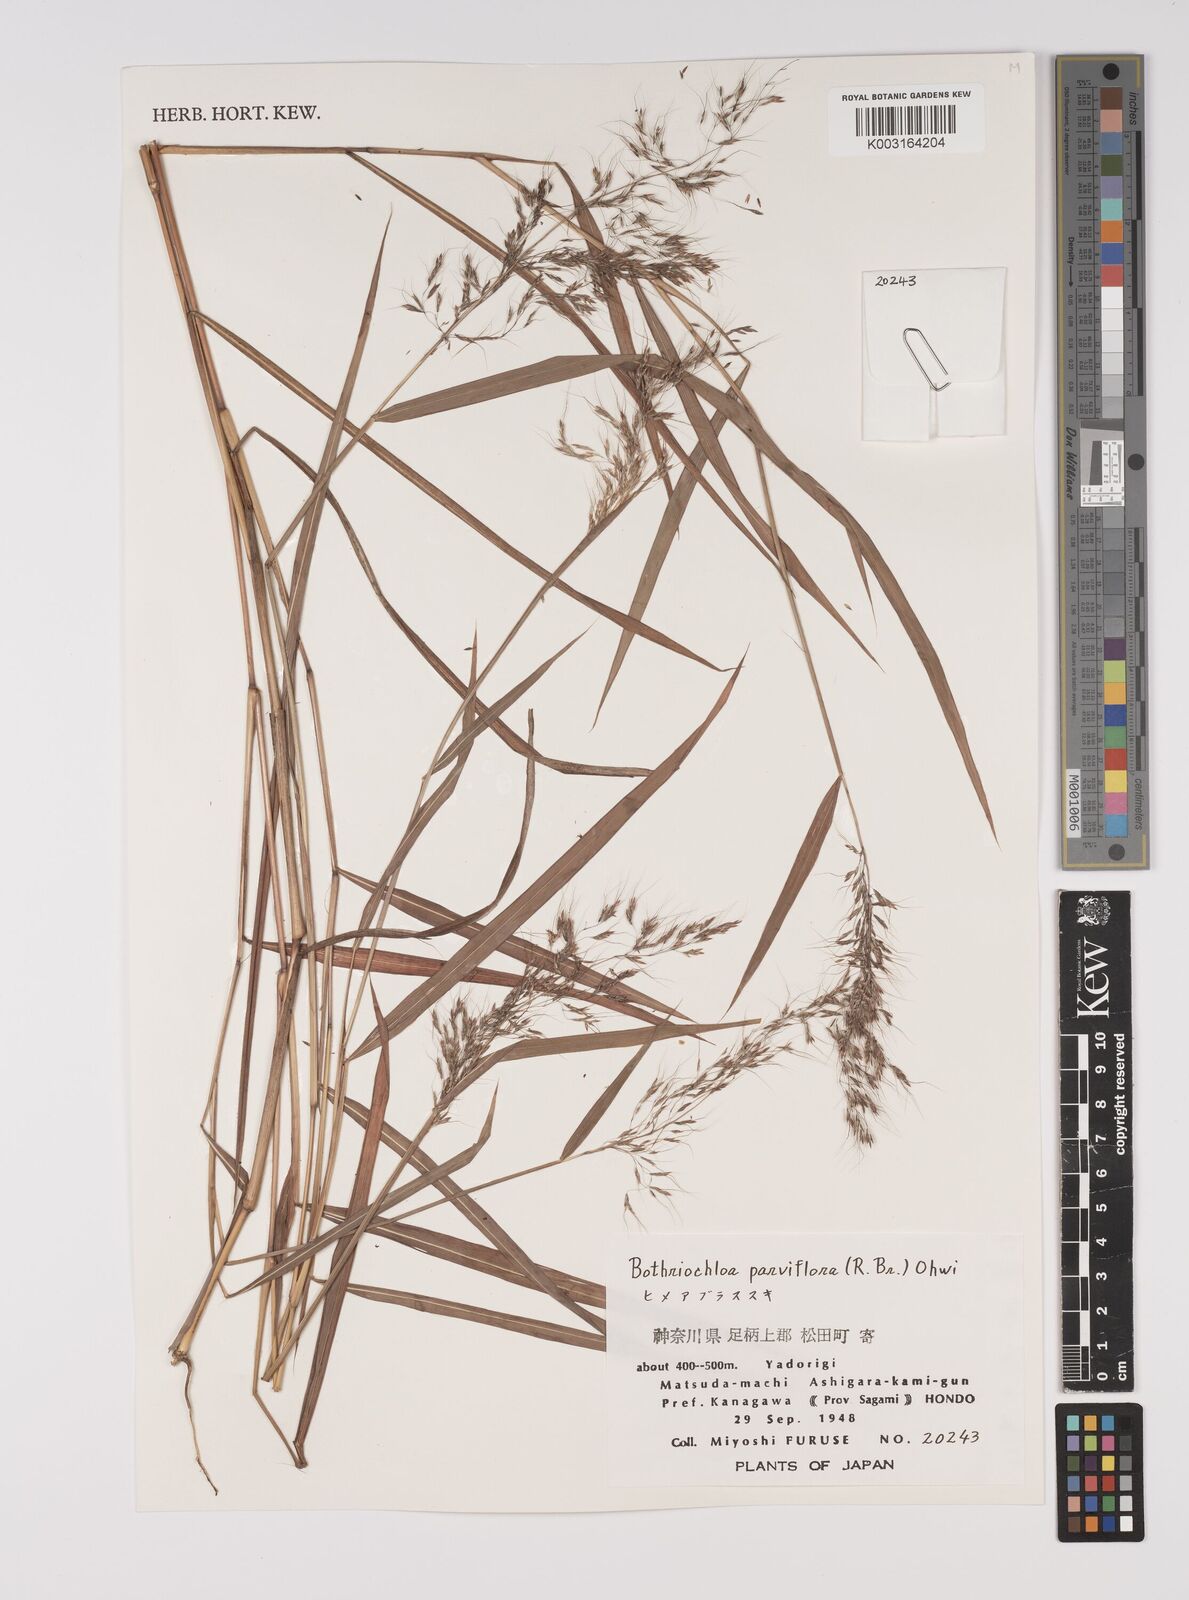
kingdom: Plantae
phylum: Tracheophyta
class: Liliopsida
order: Poales
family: Poaceae
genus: Capillipedium
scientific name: Capillipedium parviflorum
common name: Golden-beard
